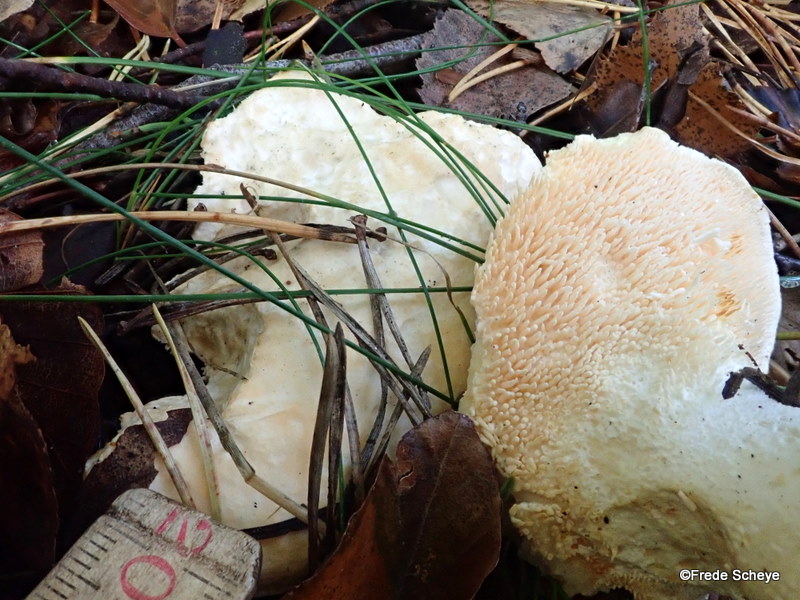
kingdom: Fungi
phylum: Basidiomycota
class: Agaricomycetes
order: Cantharellales
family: Hydnaceae
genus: Hydnum
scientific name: Hydnum repandum
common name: almindelig pigsvamp
